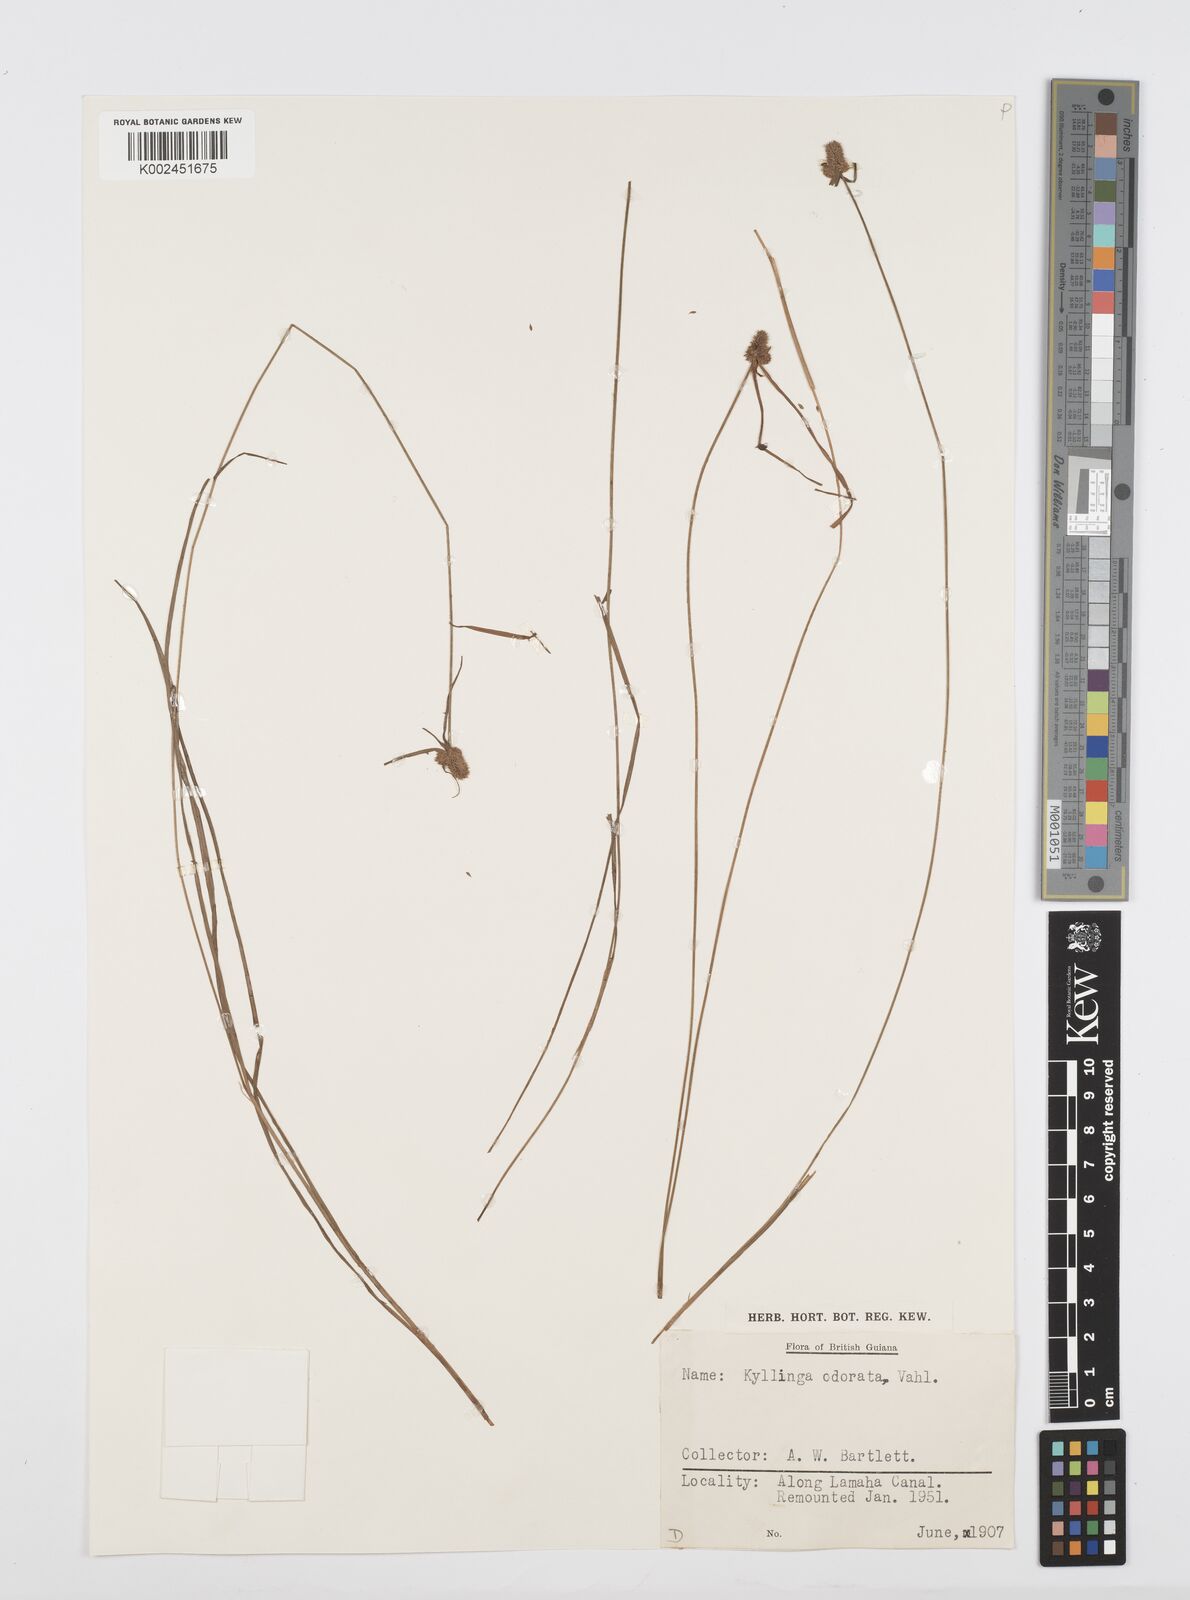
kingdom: Plantae
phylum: Tracheophyta
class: Liliopsida
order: Poales
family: Cyperaceae
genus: Cyperus
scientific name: Cyperus
